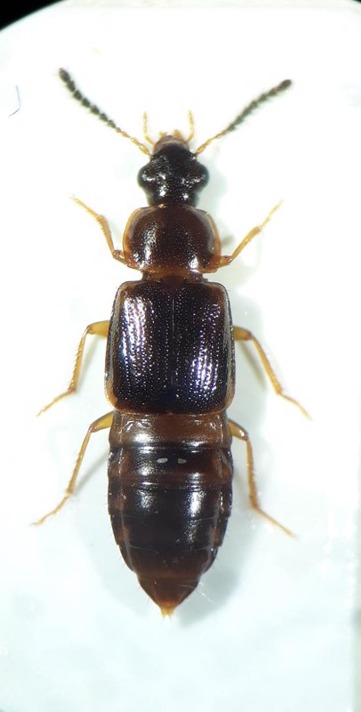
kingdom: Animalia
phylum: Arthropoda
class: Insecta
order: Coleoptera
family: Staphylinidae
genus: Phyllodrepoidea
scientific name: Phyllodrepoidea crenata
